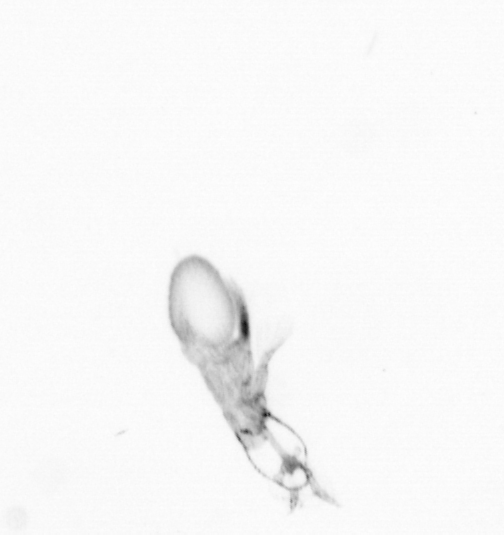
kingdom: Animalia
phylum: Annelida
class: Polychaeta
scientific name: Polychaeta
